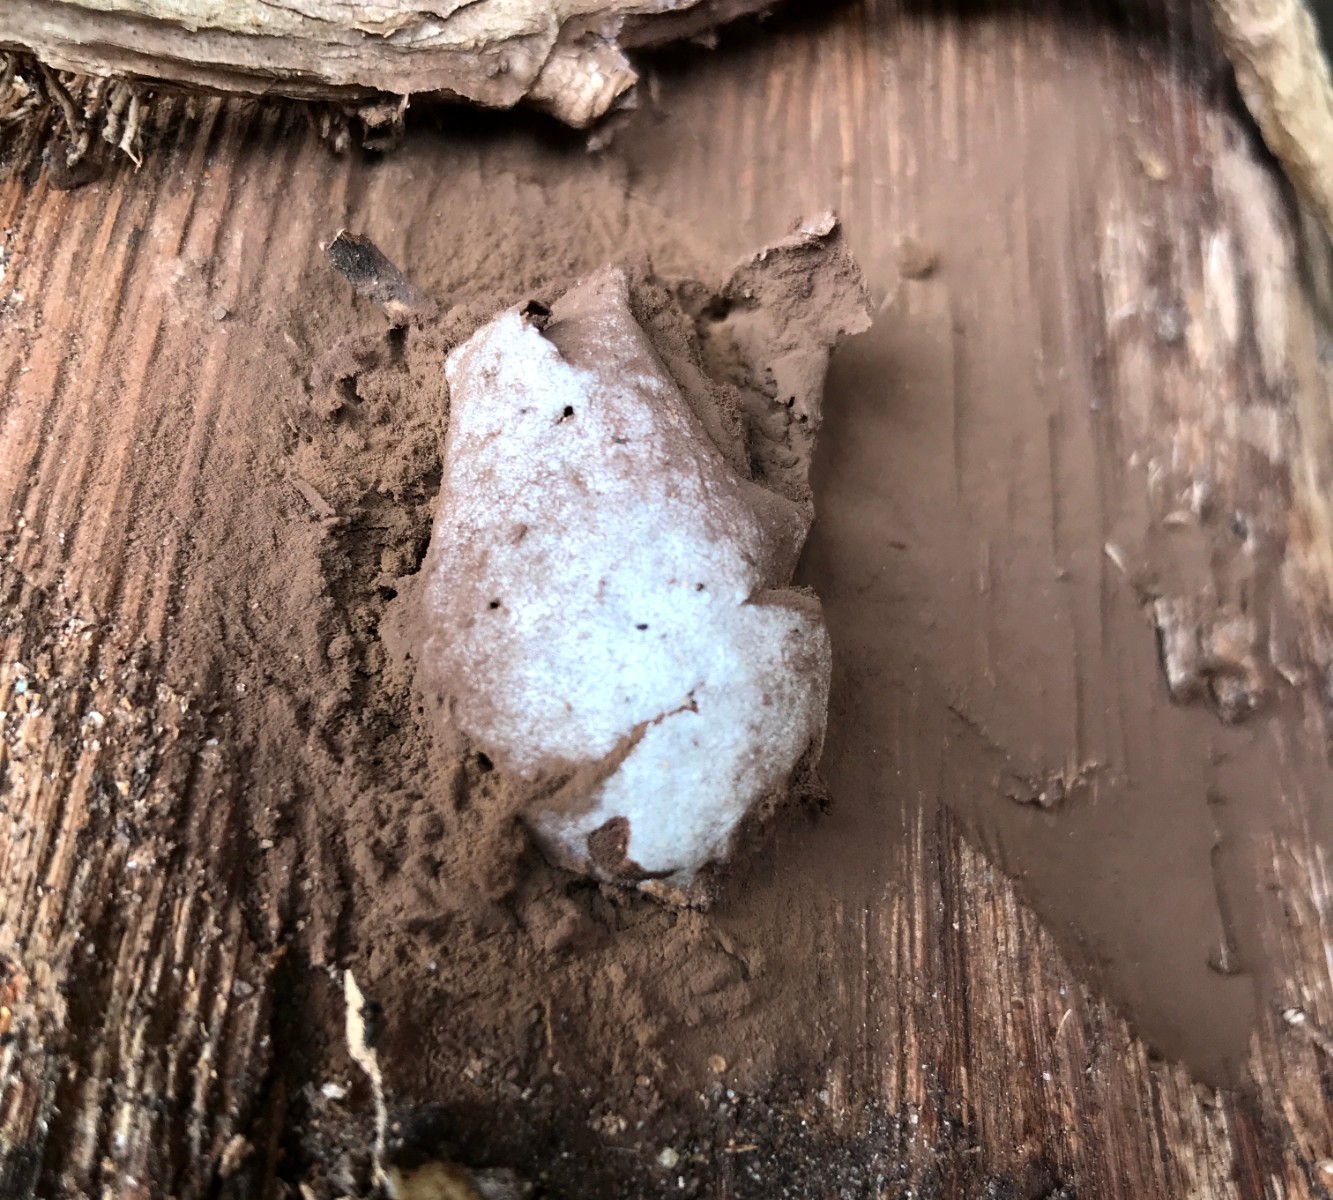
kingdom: Protozoa
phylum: Mycetozoa
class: Myxomycetes
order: Cribrariales
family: Tubiferaceae
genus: Reticularia
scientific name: Reticularia lycoperdon
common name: skinnende støvpude
